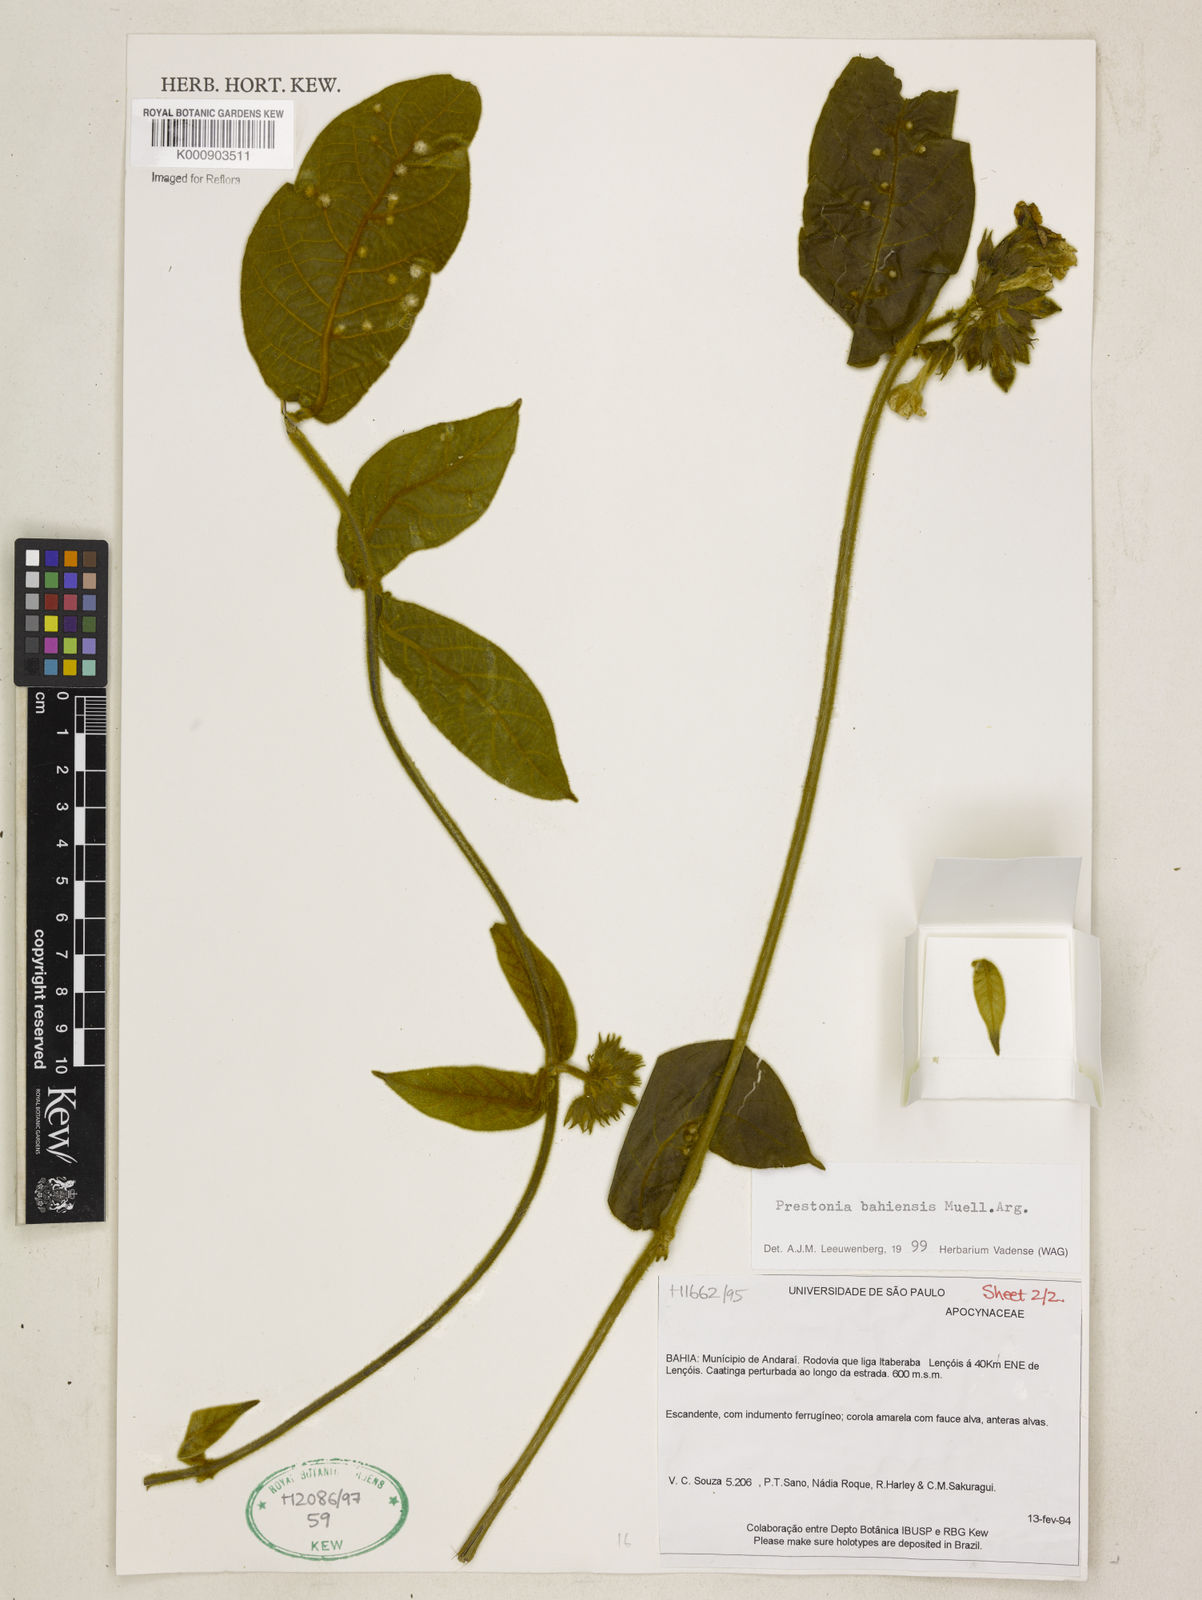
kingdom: Plantae
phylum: Tracheophyta
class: Magnoliopsida
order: Gentianales
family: Apocynaceae
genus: Prestonia
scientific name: Prestonia
